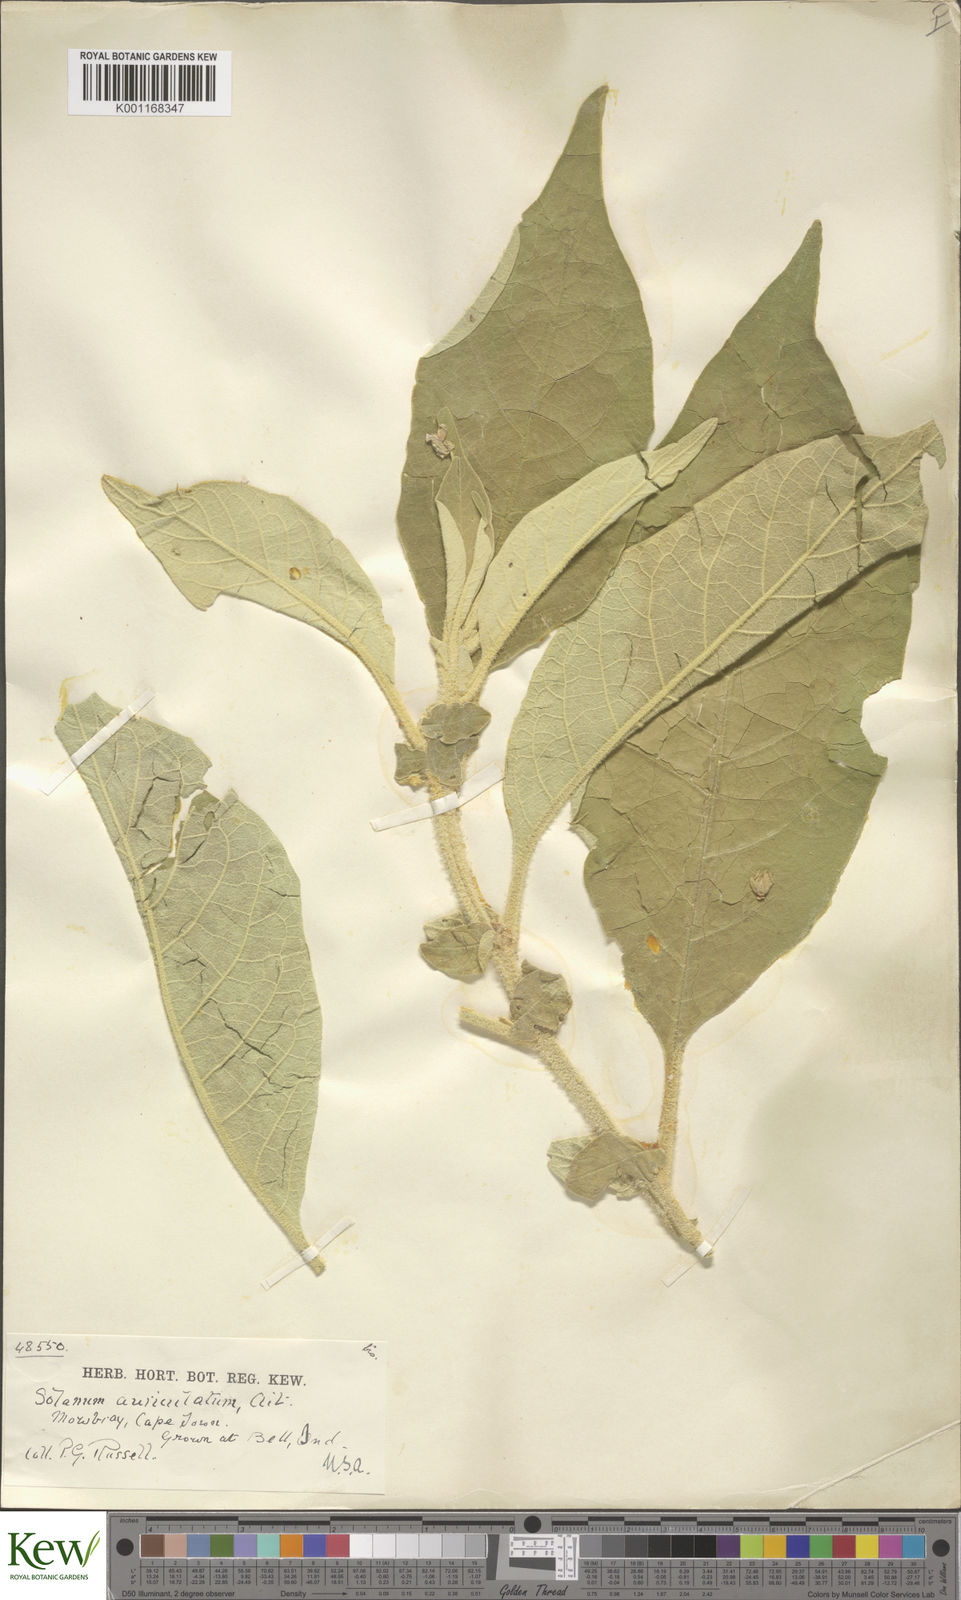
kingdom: Plantae
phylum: Tracheophyta
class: Magnoliopsida
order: Solanales
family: Solanaceae
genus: Solanum
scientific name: Solanum mauritianum
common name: Earleaf nightshade
